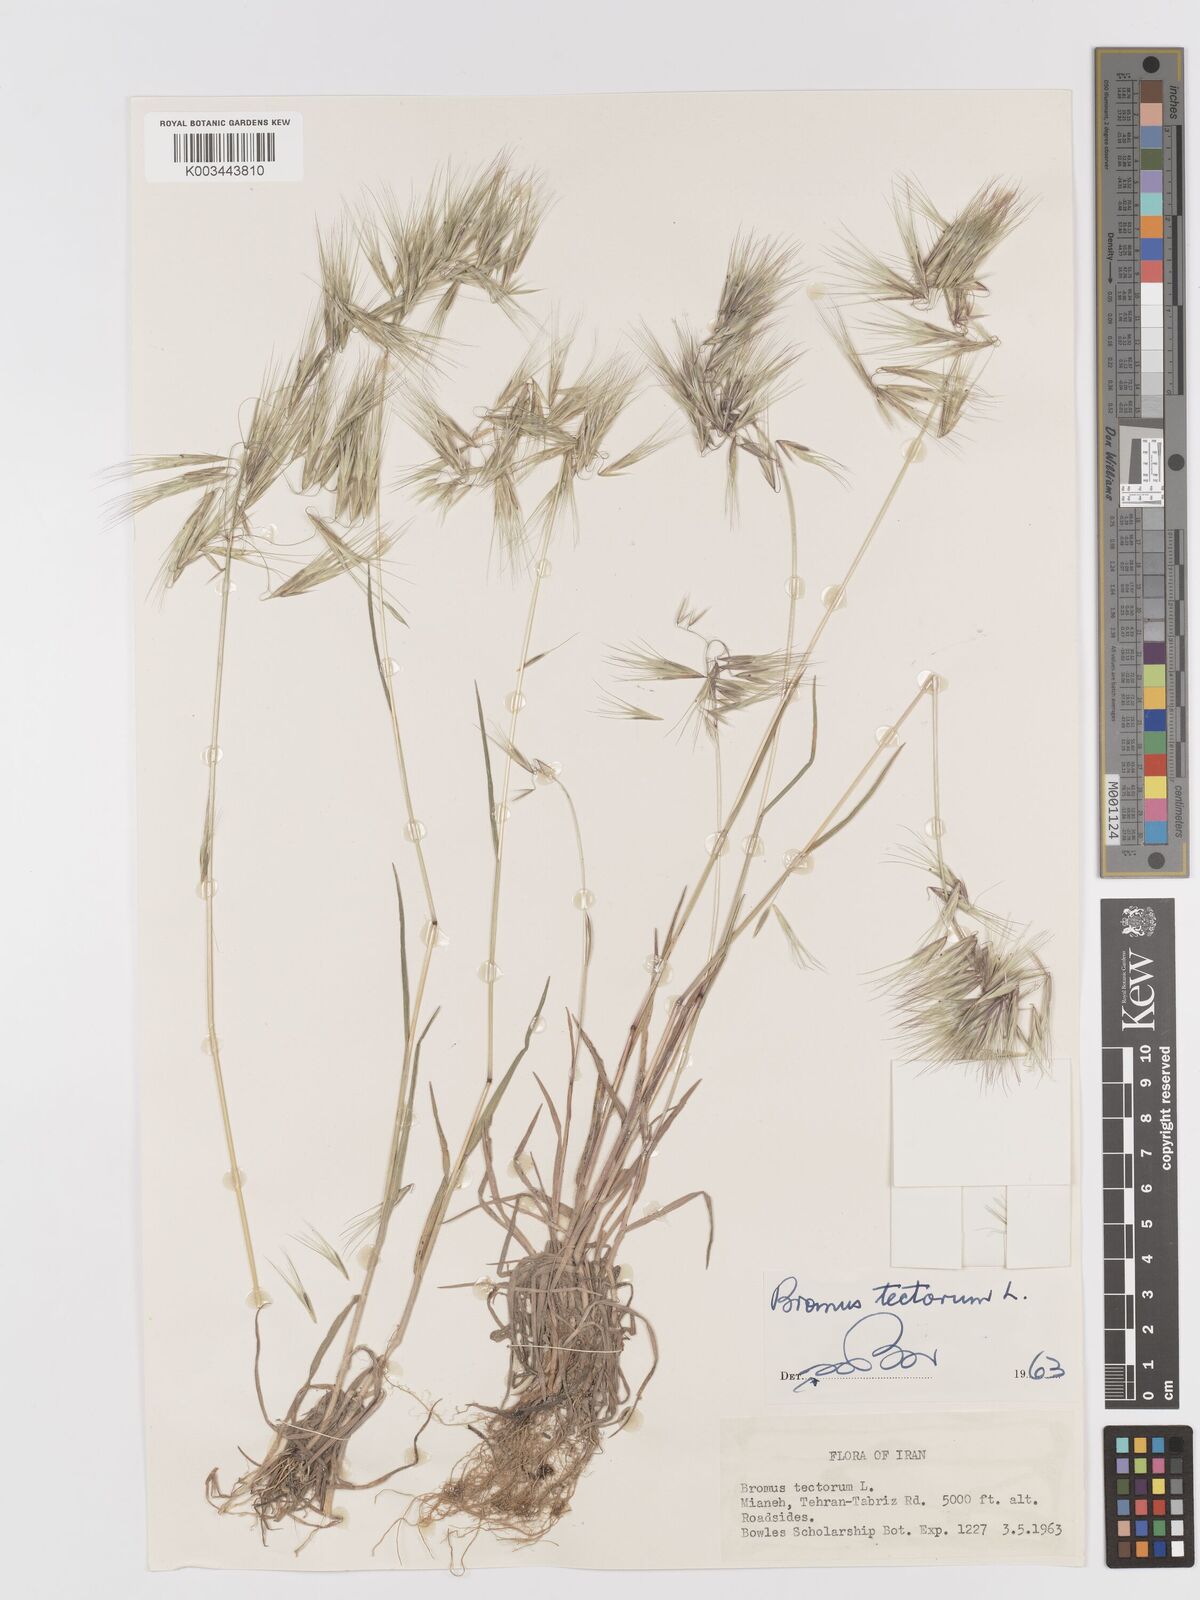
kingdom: Plantae
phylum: Tracheophyta
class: Liliopsida
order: Poales
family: Poaceae
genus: Bromus
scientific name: Bromus tectorum
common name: Cheatgrass
